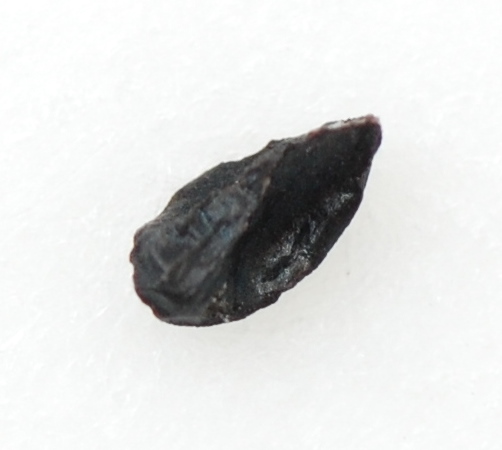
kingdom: Plantae
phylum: Tracheophyta
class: Liliopsida
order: Asparagales
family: Amaryllidaceae
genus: Allium
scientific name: Allium ursinum
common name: Ramsons
